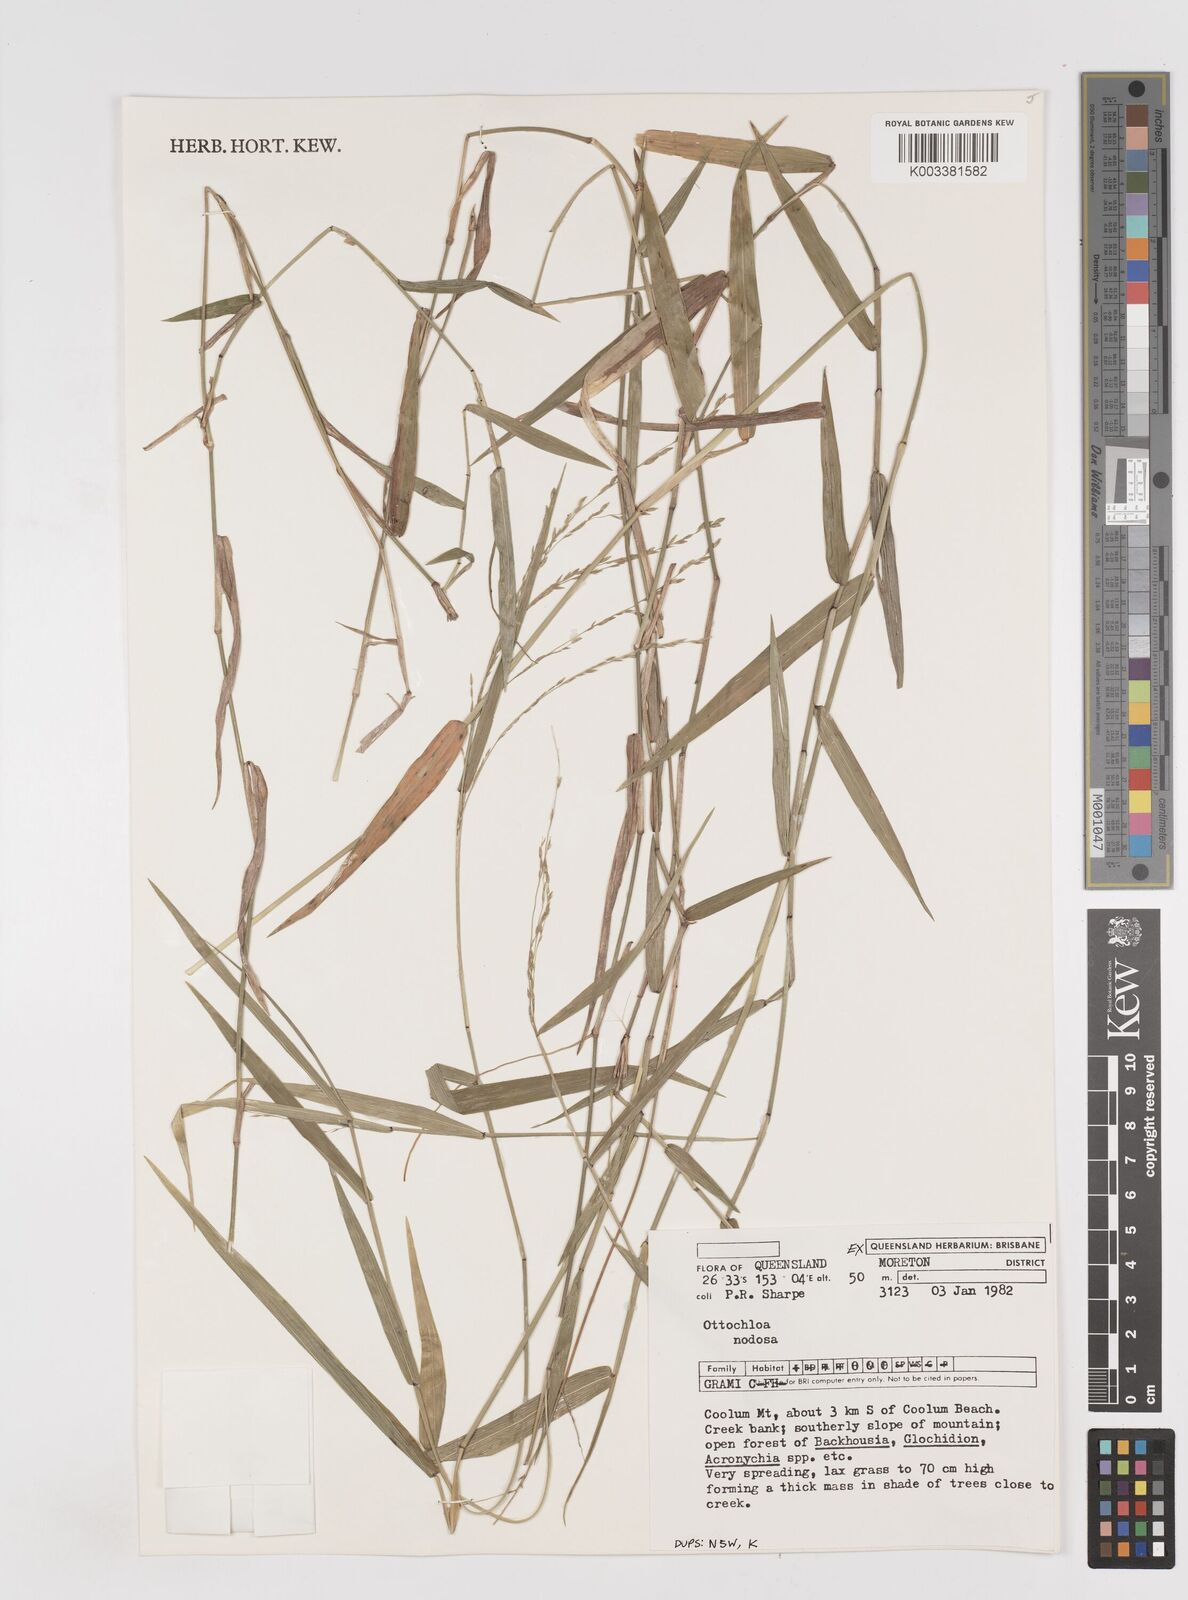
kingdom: Plantae
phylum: Tracheophyta
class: Liliopsida
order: Poales
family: Poaceae
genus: Ottochloa
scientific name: Ottochloa nodosa
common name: Slender-panic grass
